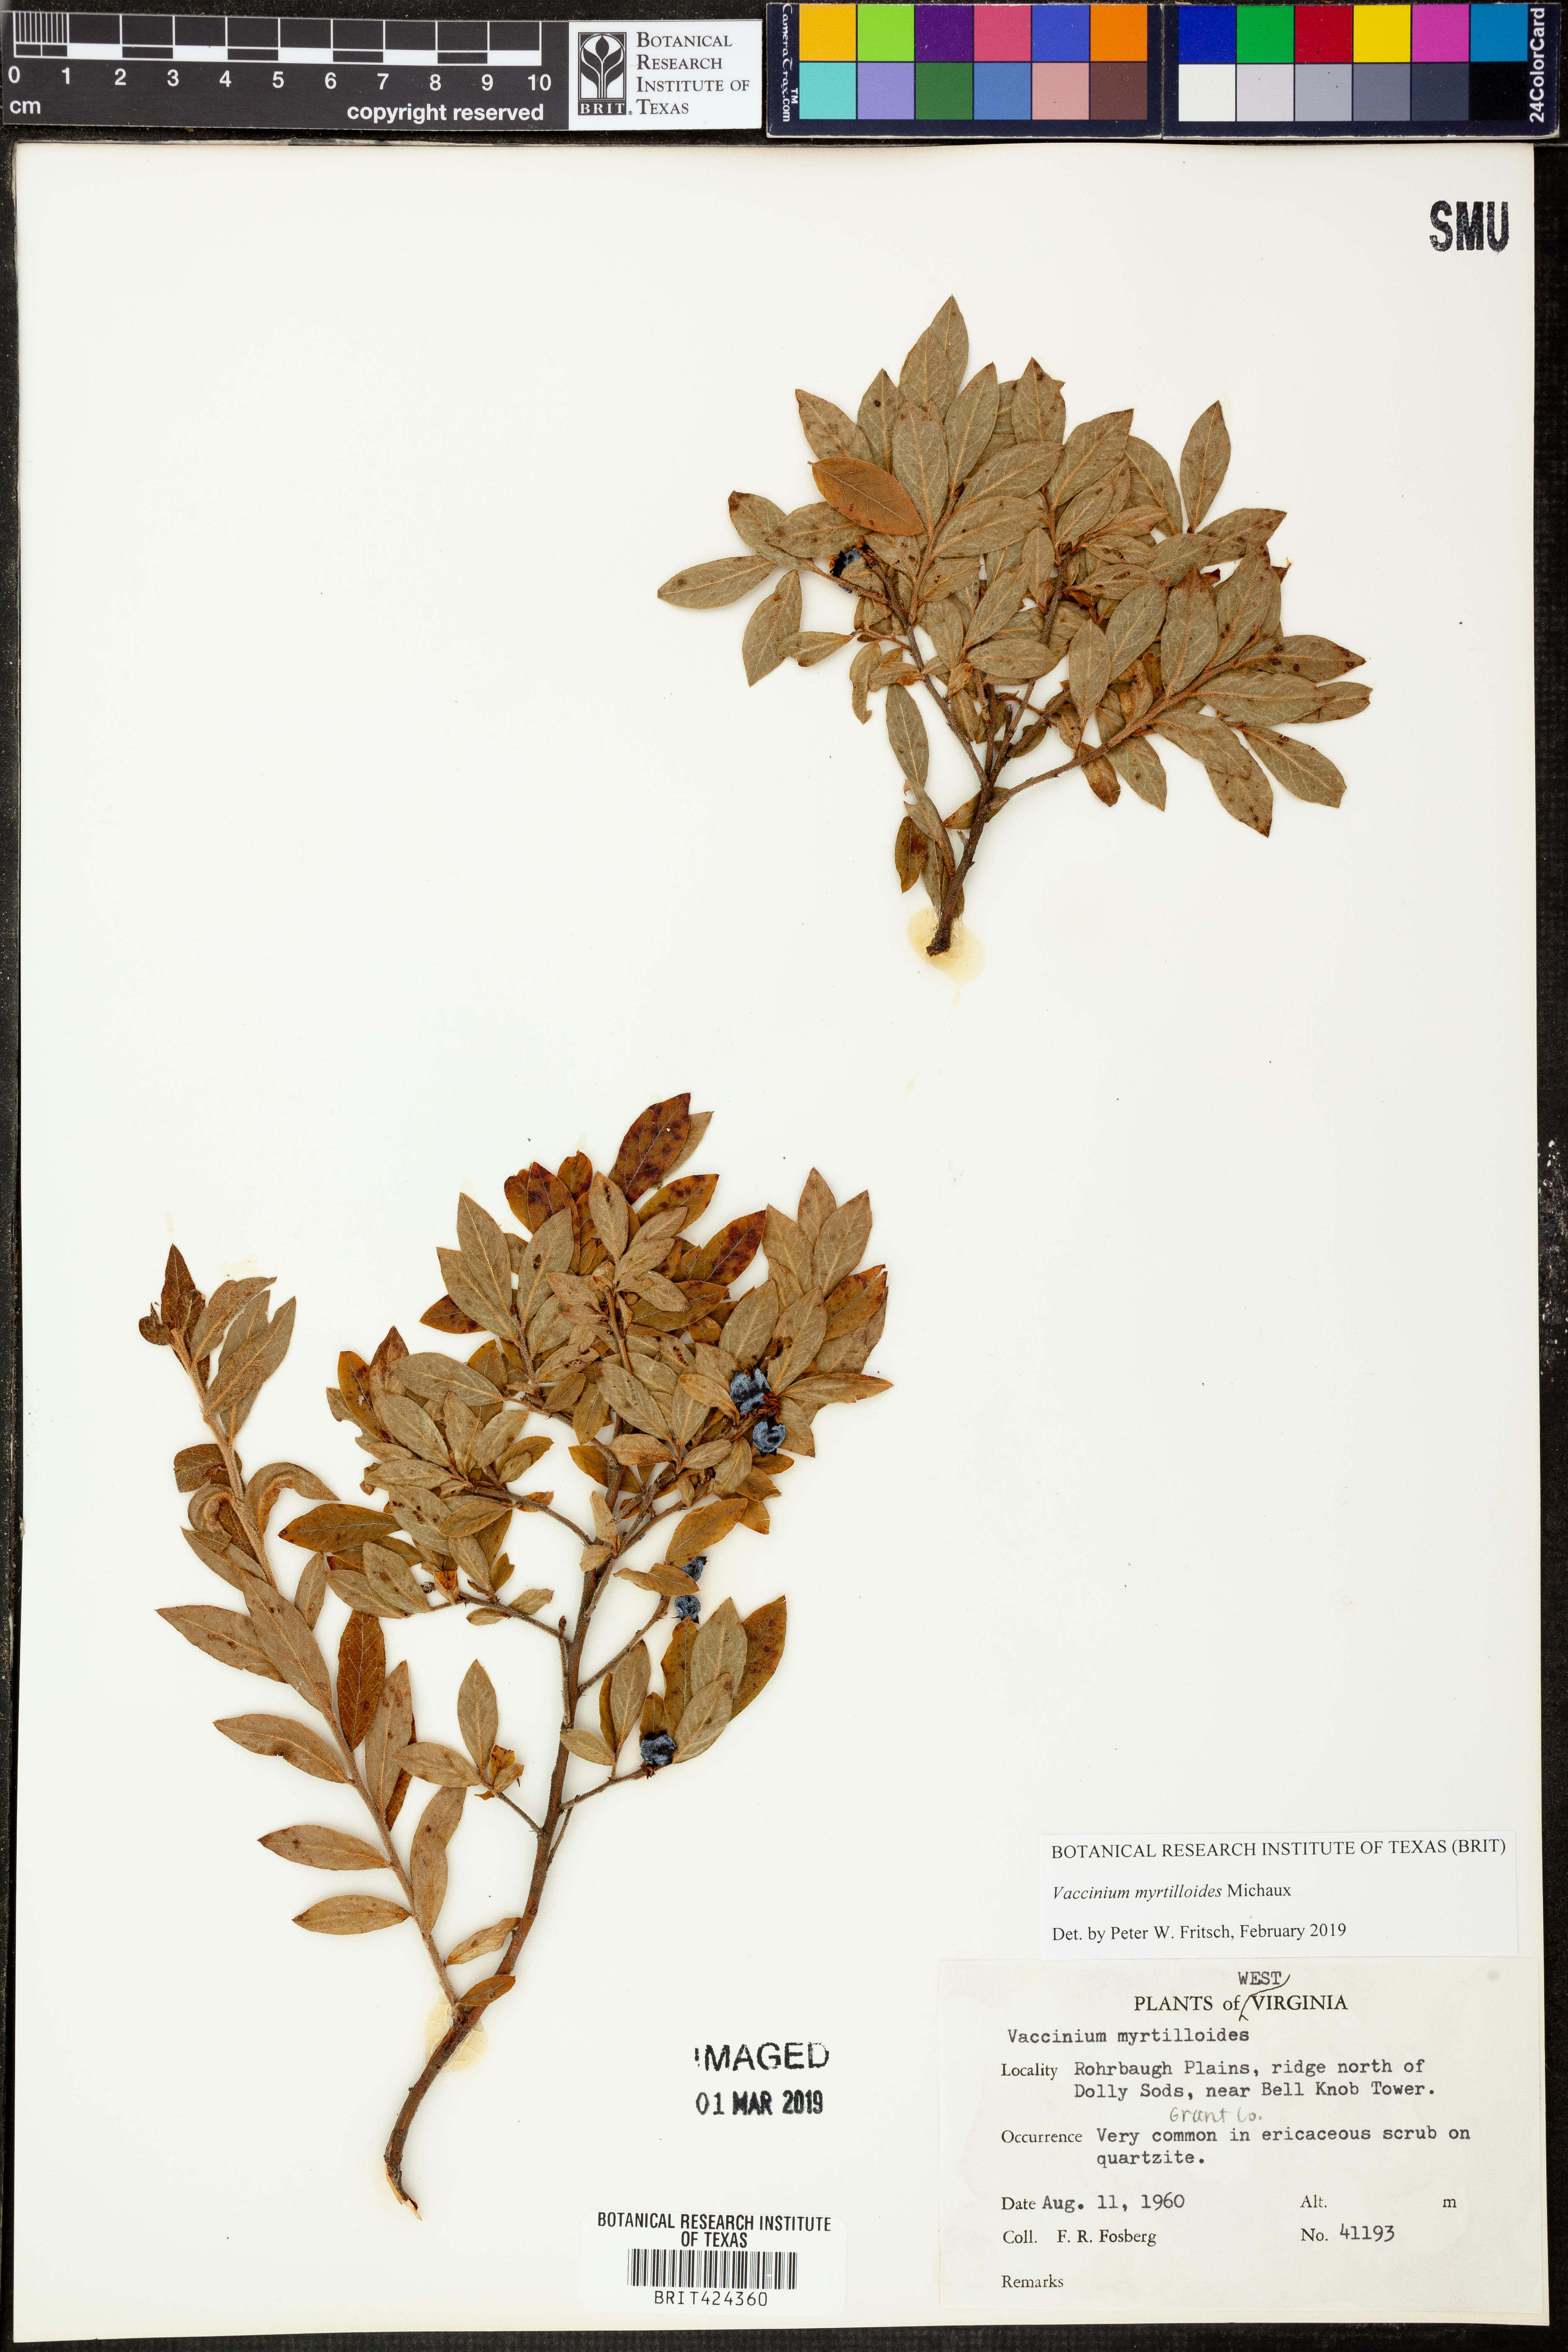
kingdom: Plantae
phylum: Tracheophyta
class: Magnoliopsida
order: Ericales
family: Ericaceae
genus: Vaccinium
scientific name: Vaccinium myrtilloides
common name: Canada blueberry
